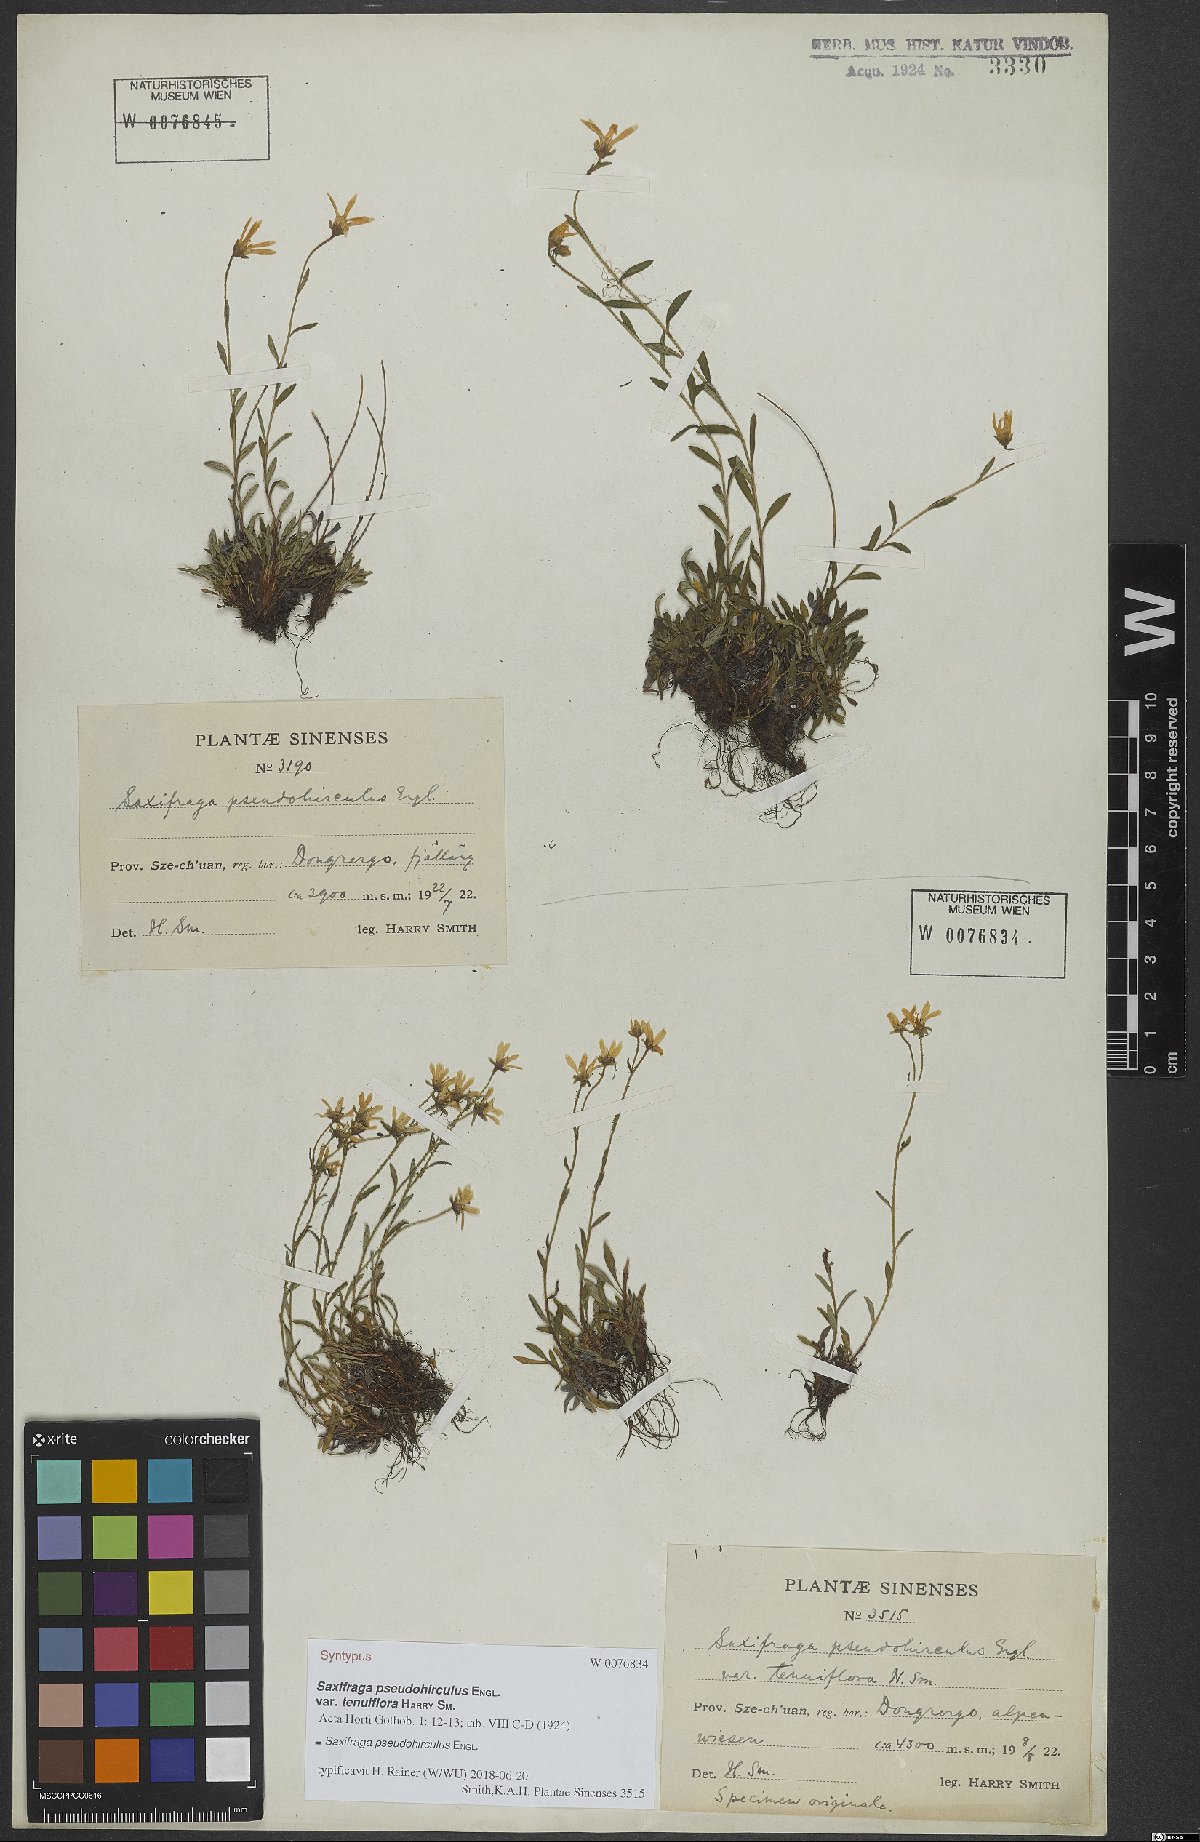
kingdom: Plantae
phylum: Tracheophyta
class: Magnoliopsida
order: Saxifragales
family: Saxifragaceae
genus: Saxifraga
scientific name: Saxifraga pseudohirculus
